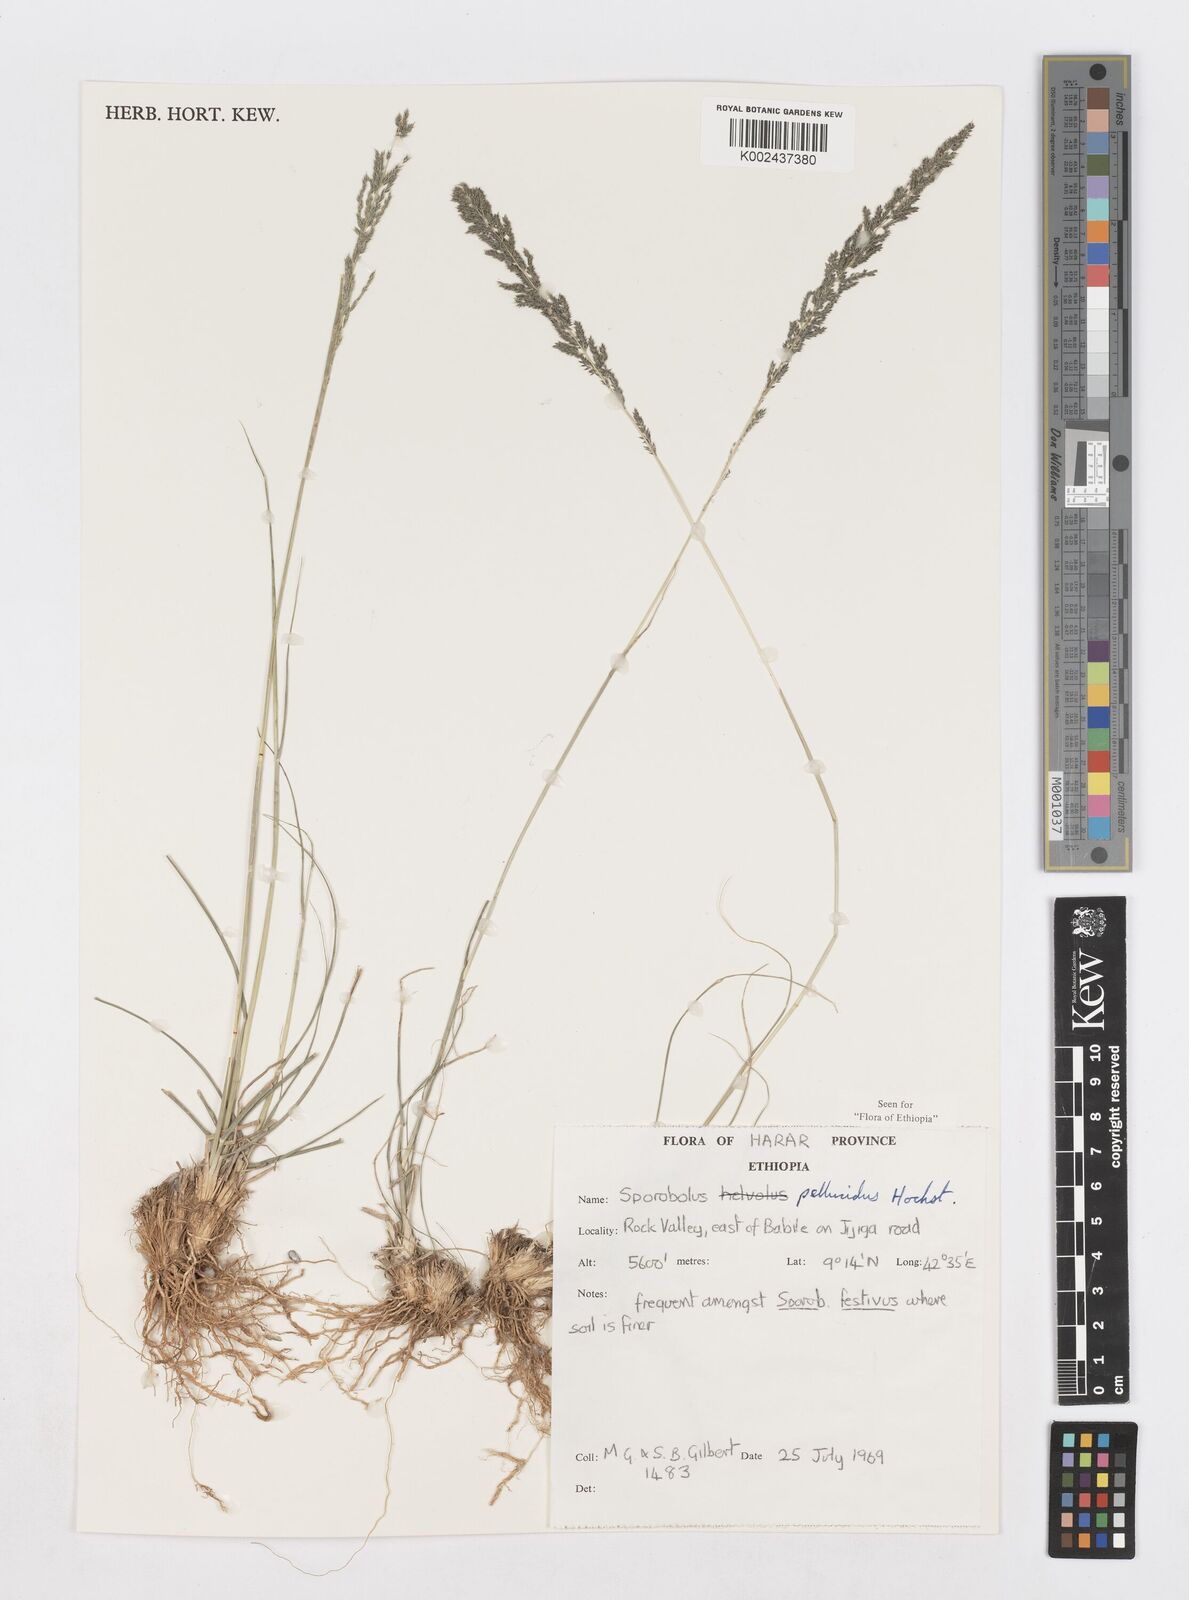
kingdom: Plantae
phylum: Tracheophyta
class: Liliopsida
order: Poales
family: Poaceae
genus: Sporobolus
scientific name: Sporobolus pellucidus
